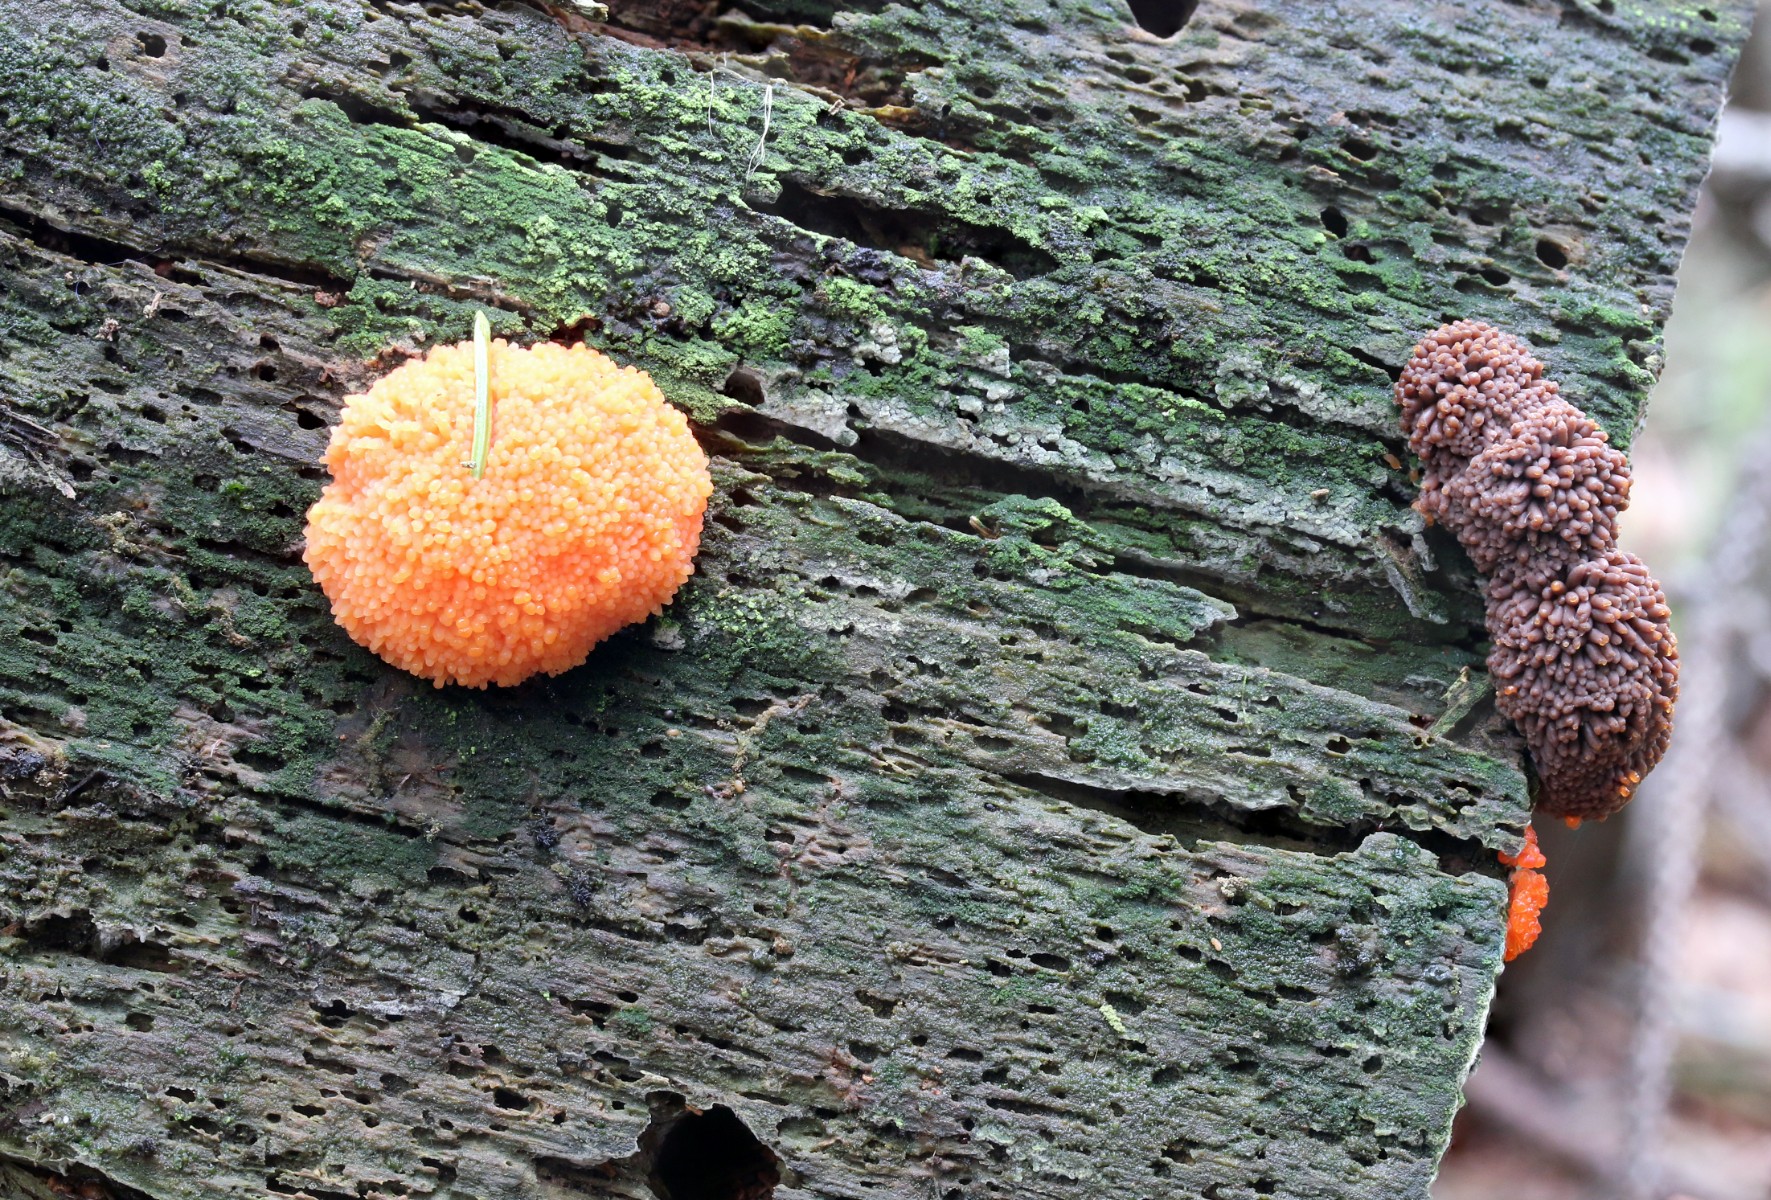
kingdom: Protozoa
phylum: Mycetozoa
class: Myxomycetes
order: Cribrariales
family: Tubiferaceae
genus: Tubifera
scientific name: Tubifera ferruginosa
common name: kanel-støvrør
